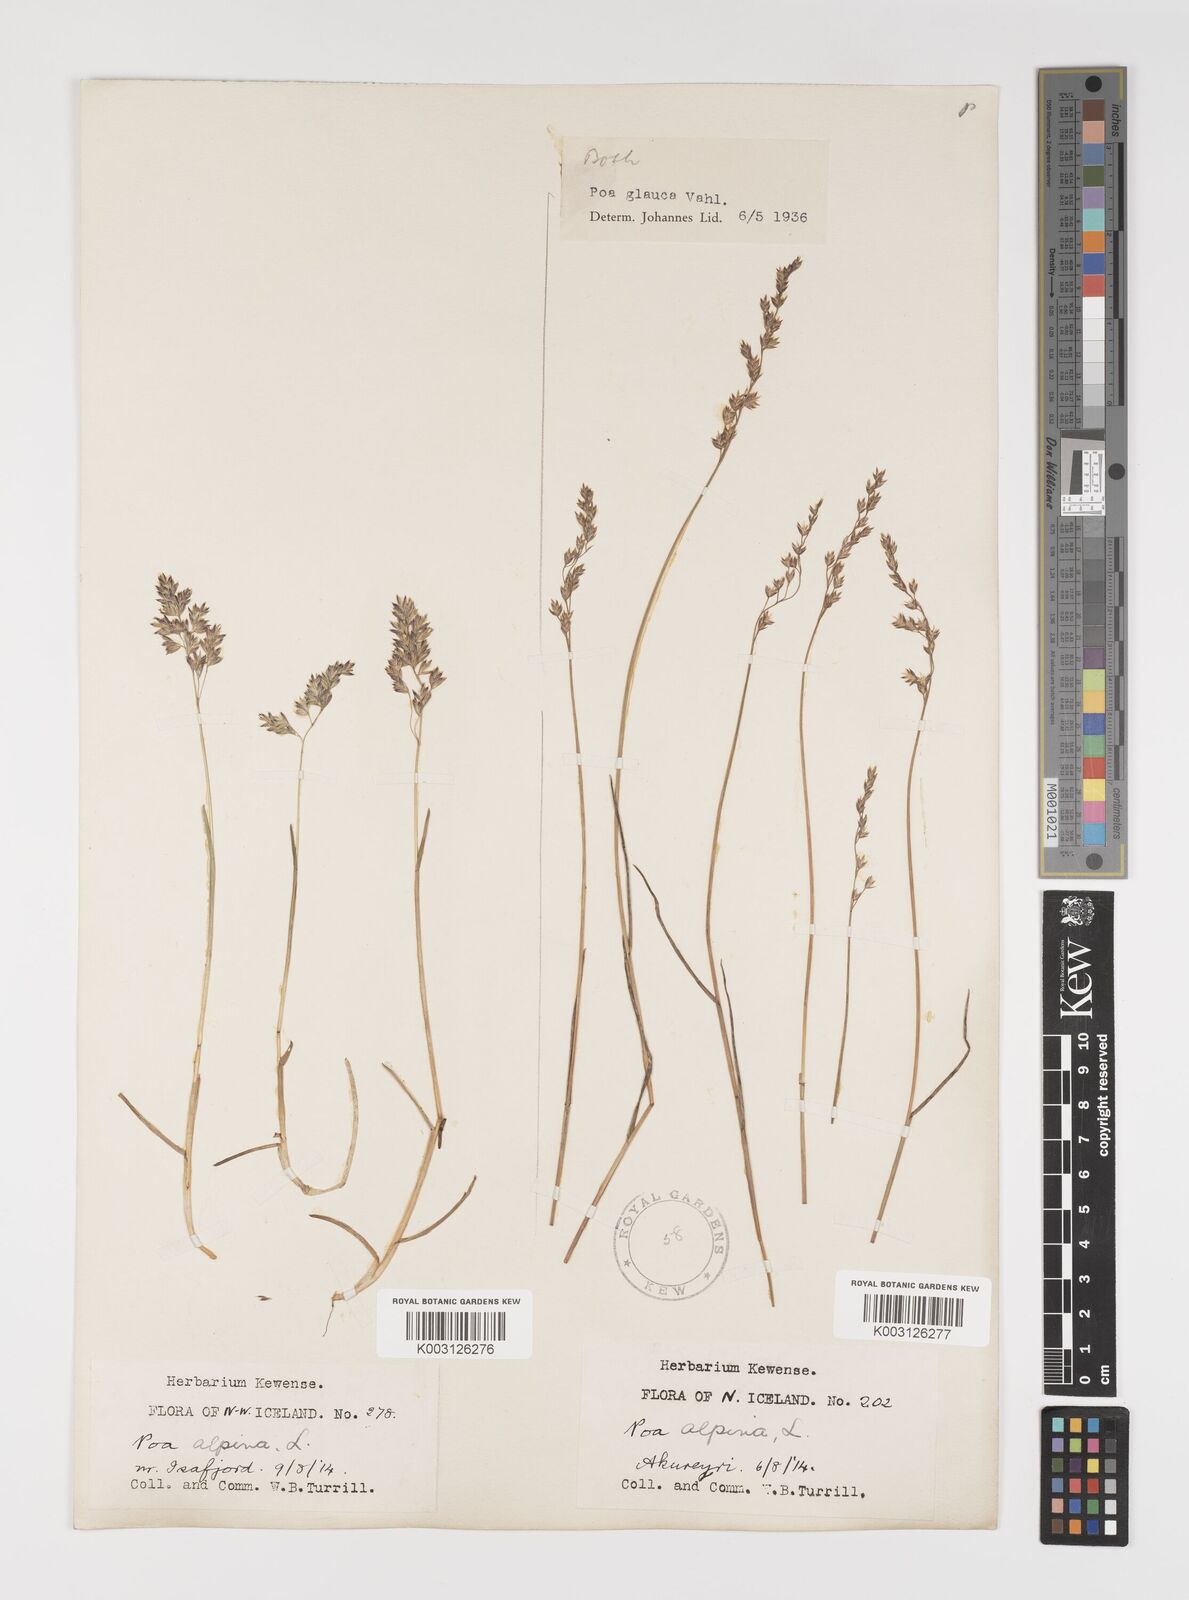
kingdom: Plantae
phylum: Tracheophyta
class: Liliopsida
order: Poales
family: Poaceae
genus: Poa
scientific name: Poa glauca
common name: Glaucous bluegrass
